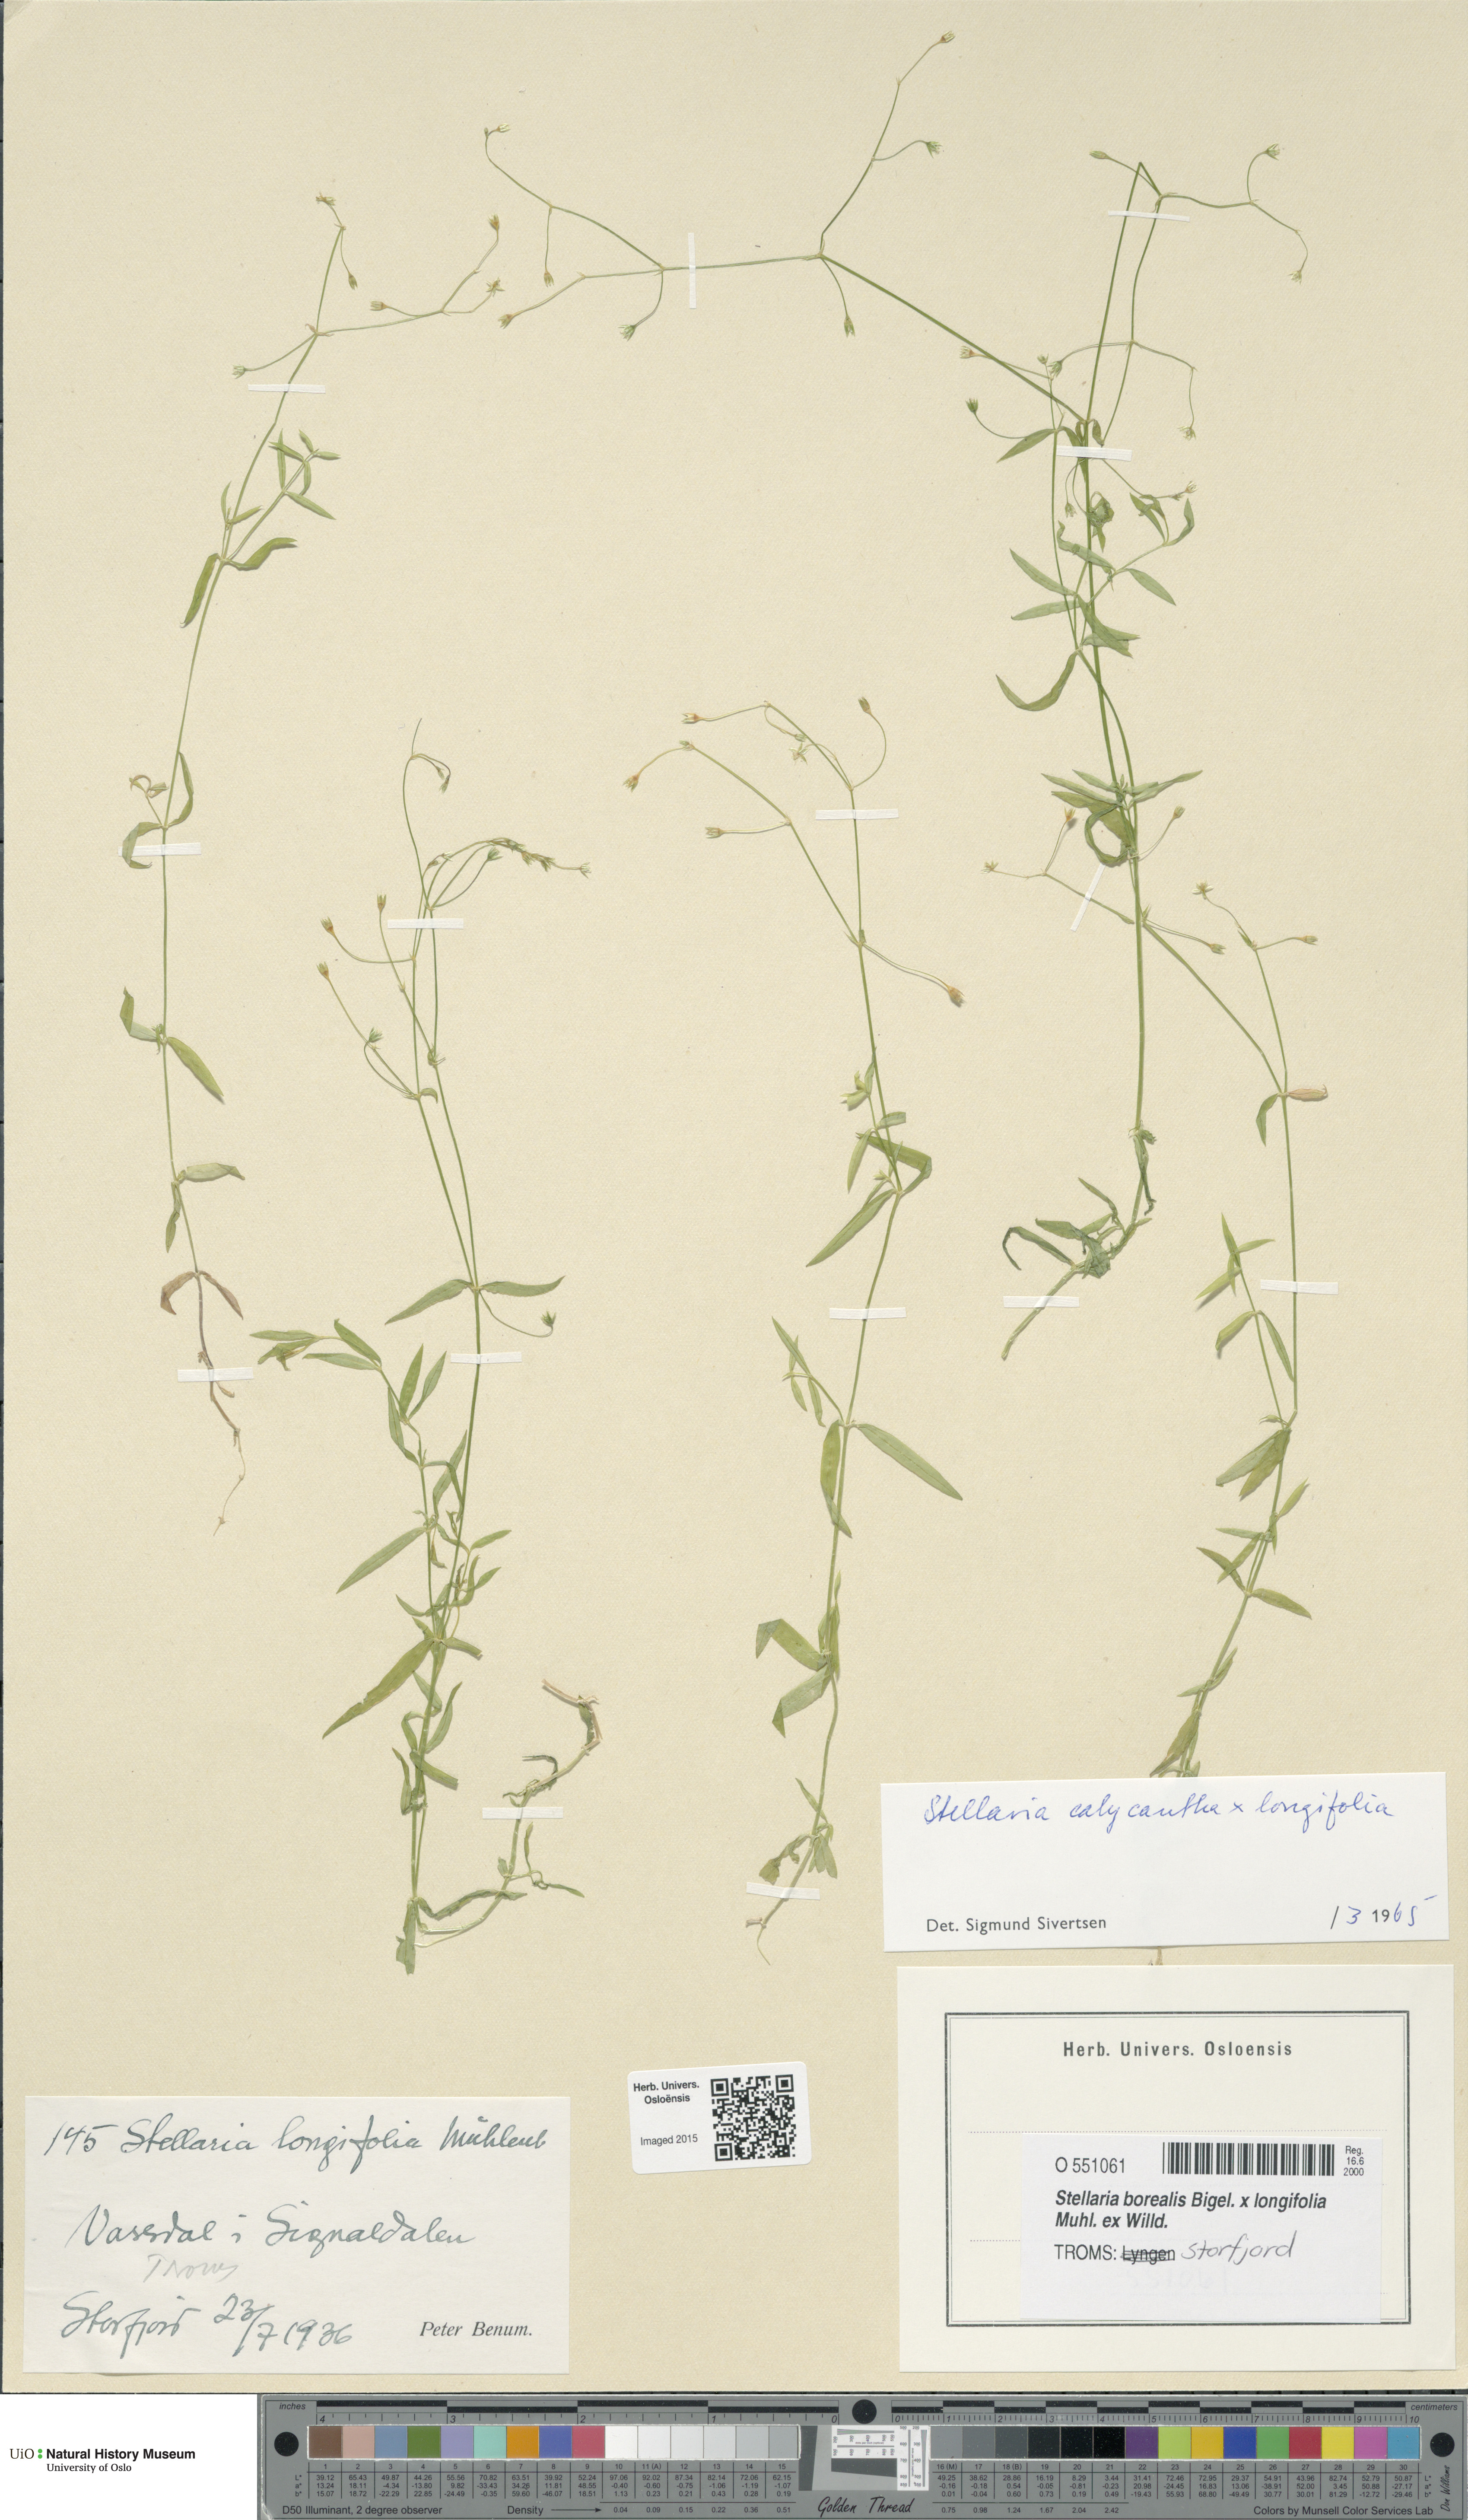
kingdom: Plantae
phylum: Tracheophyta
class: Magnoliopsida
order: Caryophyllales
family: Caryophyllaceae
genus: Stellaria
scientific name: Stellaria
